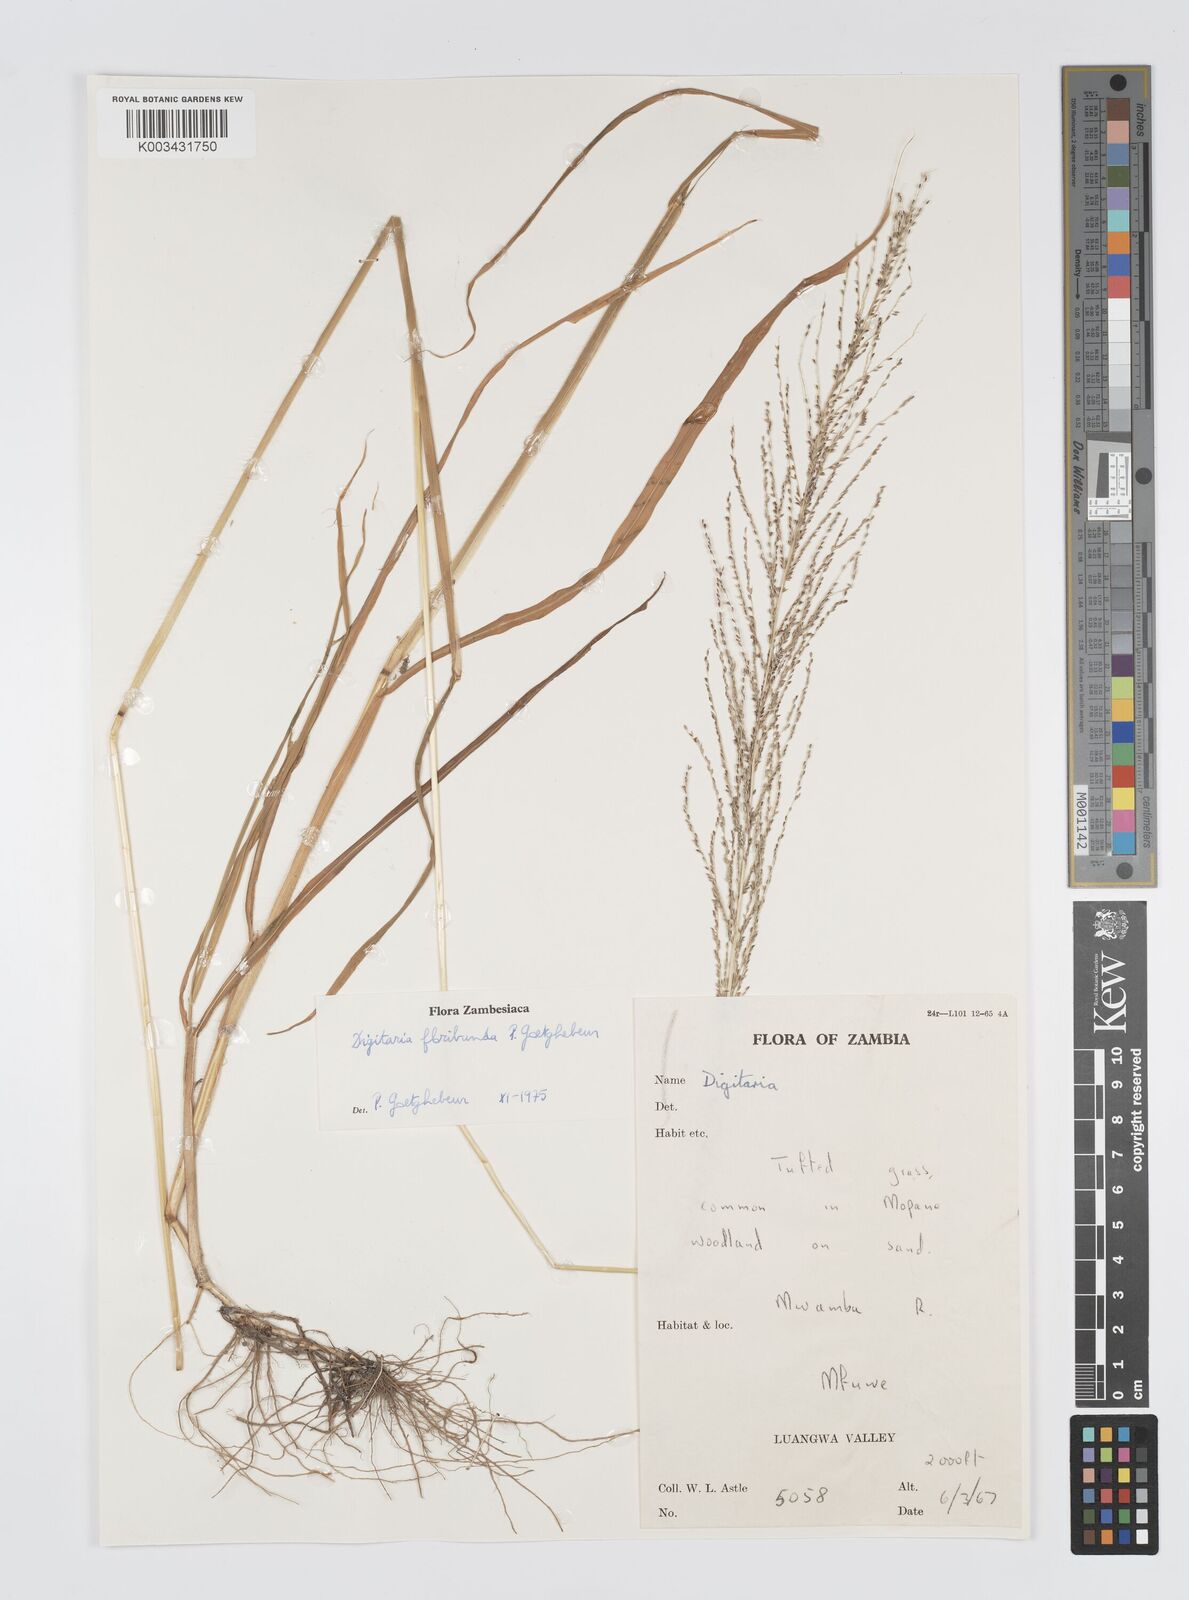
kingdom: Plantae
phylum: Tracheophyta
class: Liliopsida
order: Poales
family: Poaceae
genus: Digitaria
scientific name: Digitaria perrottetii
